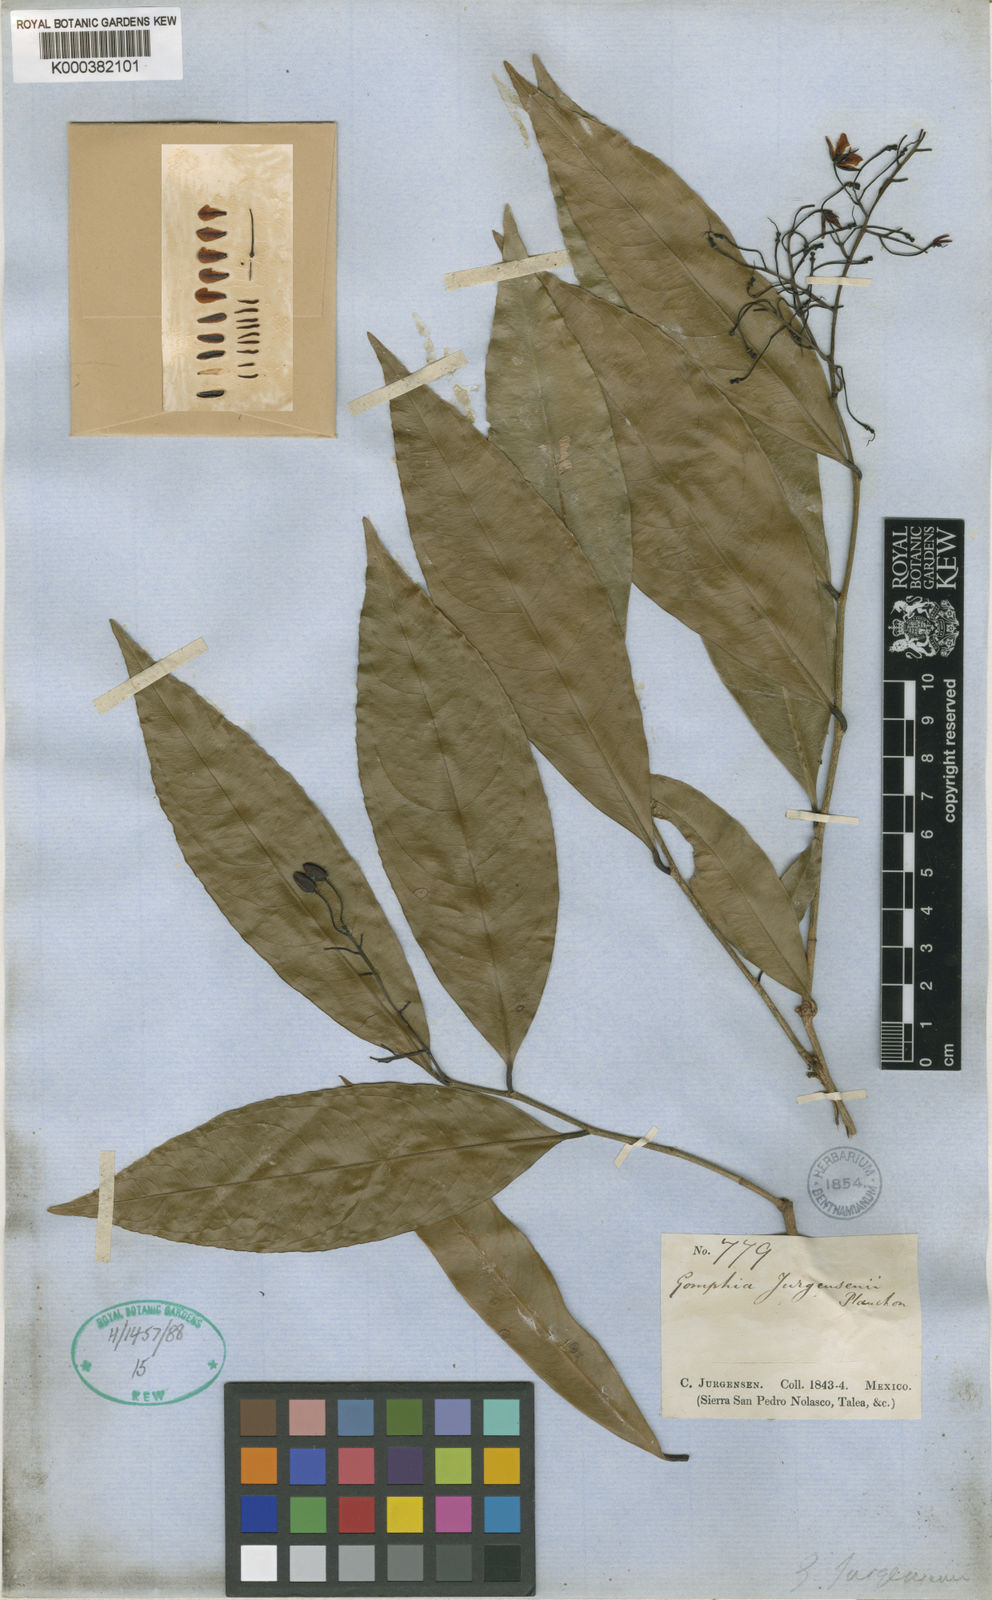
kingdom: Plantae
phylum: Tracheophyta
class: Magnoliopsida
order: Malpighiales
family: Ochnaceae
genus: Ouratea
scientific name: Ouratea juergensii
